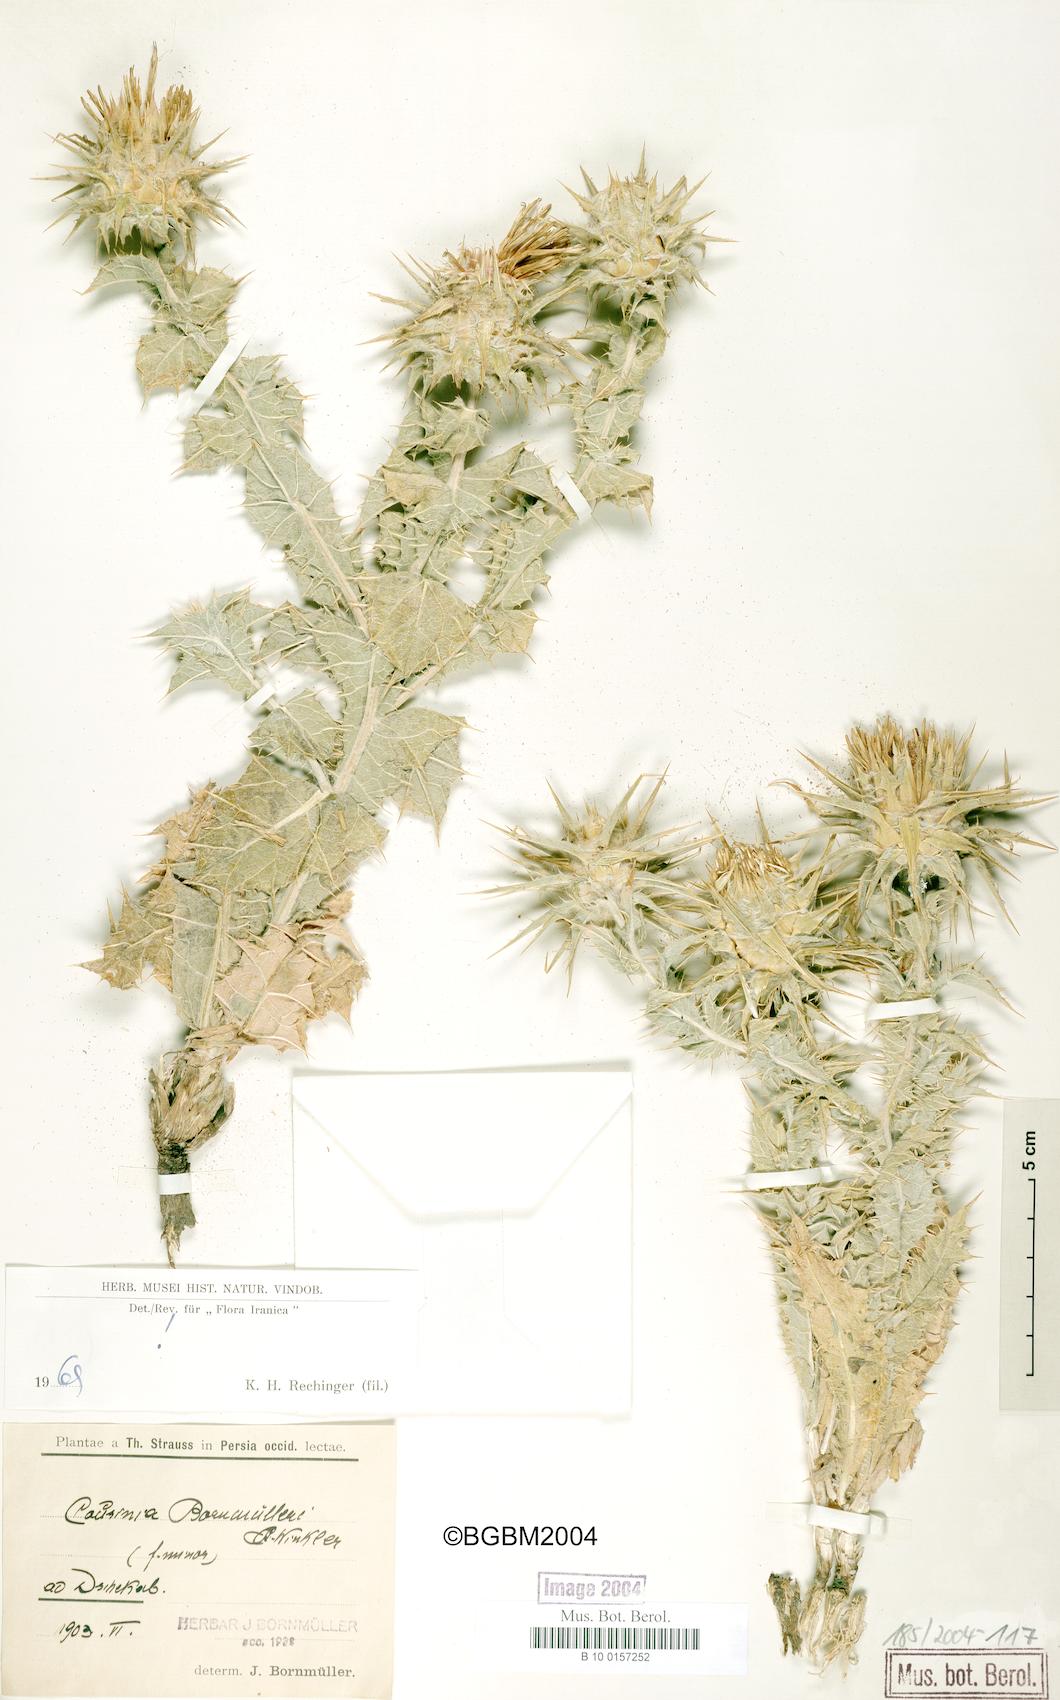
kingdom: Plantae
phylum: Tracheophyta
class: Magnoliopsida
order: Asterales
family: Asteraceae
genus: Cousinia
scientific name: Cousinia onopordioides
